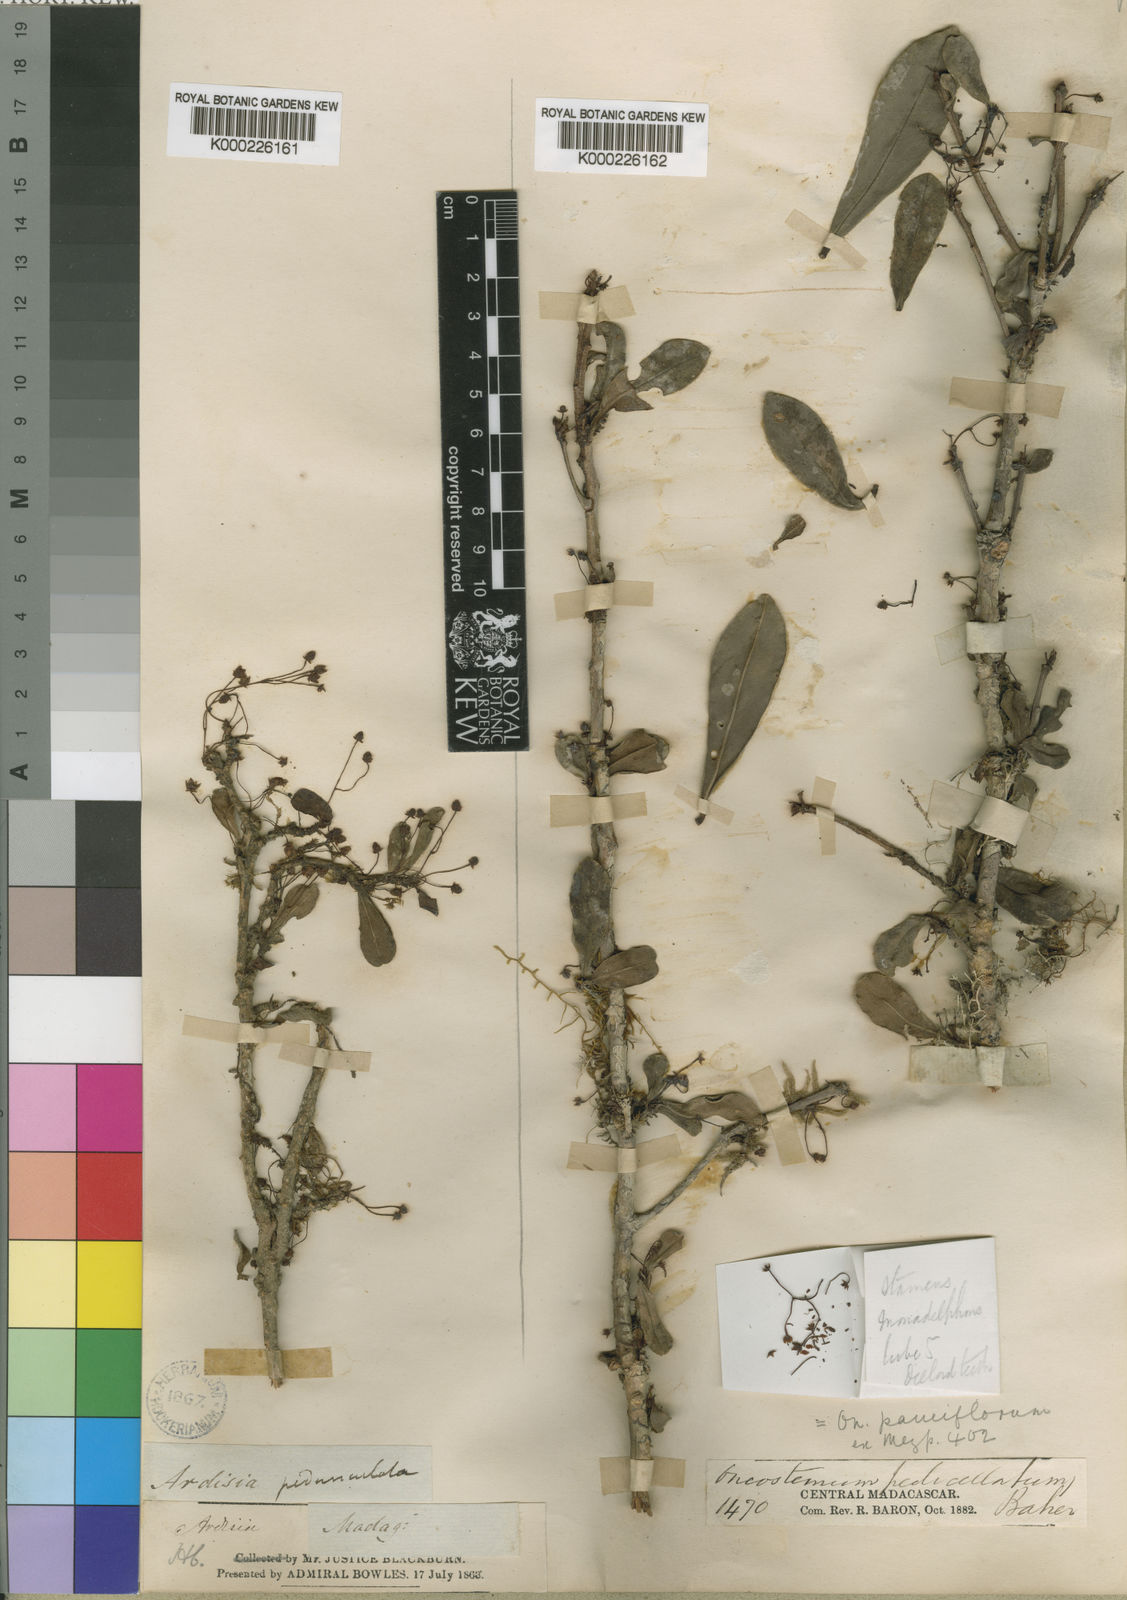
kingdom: Plantae
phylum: Tracheophyta
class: Magnoliopsida
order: Ericales
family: Primulaceae
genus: Oncostemum
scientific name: Oncostemum pauciflorum
